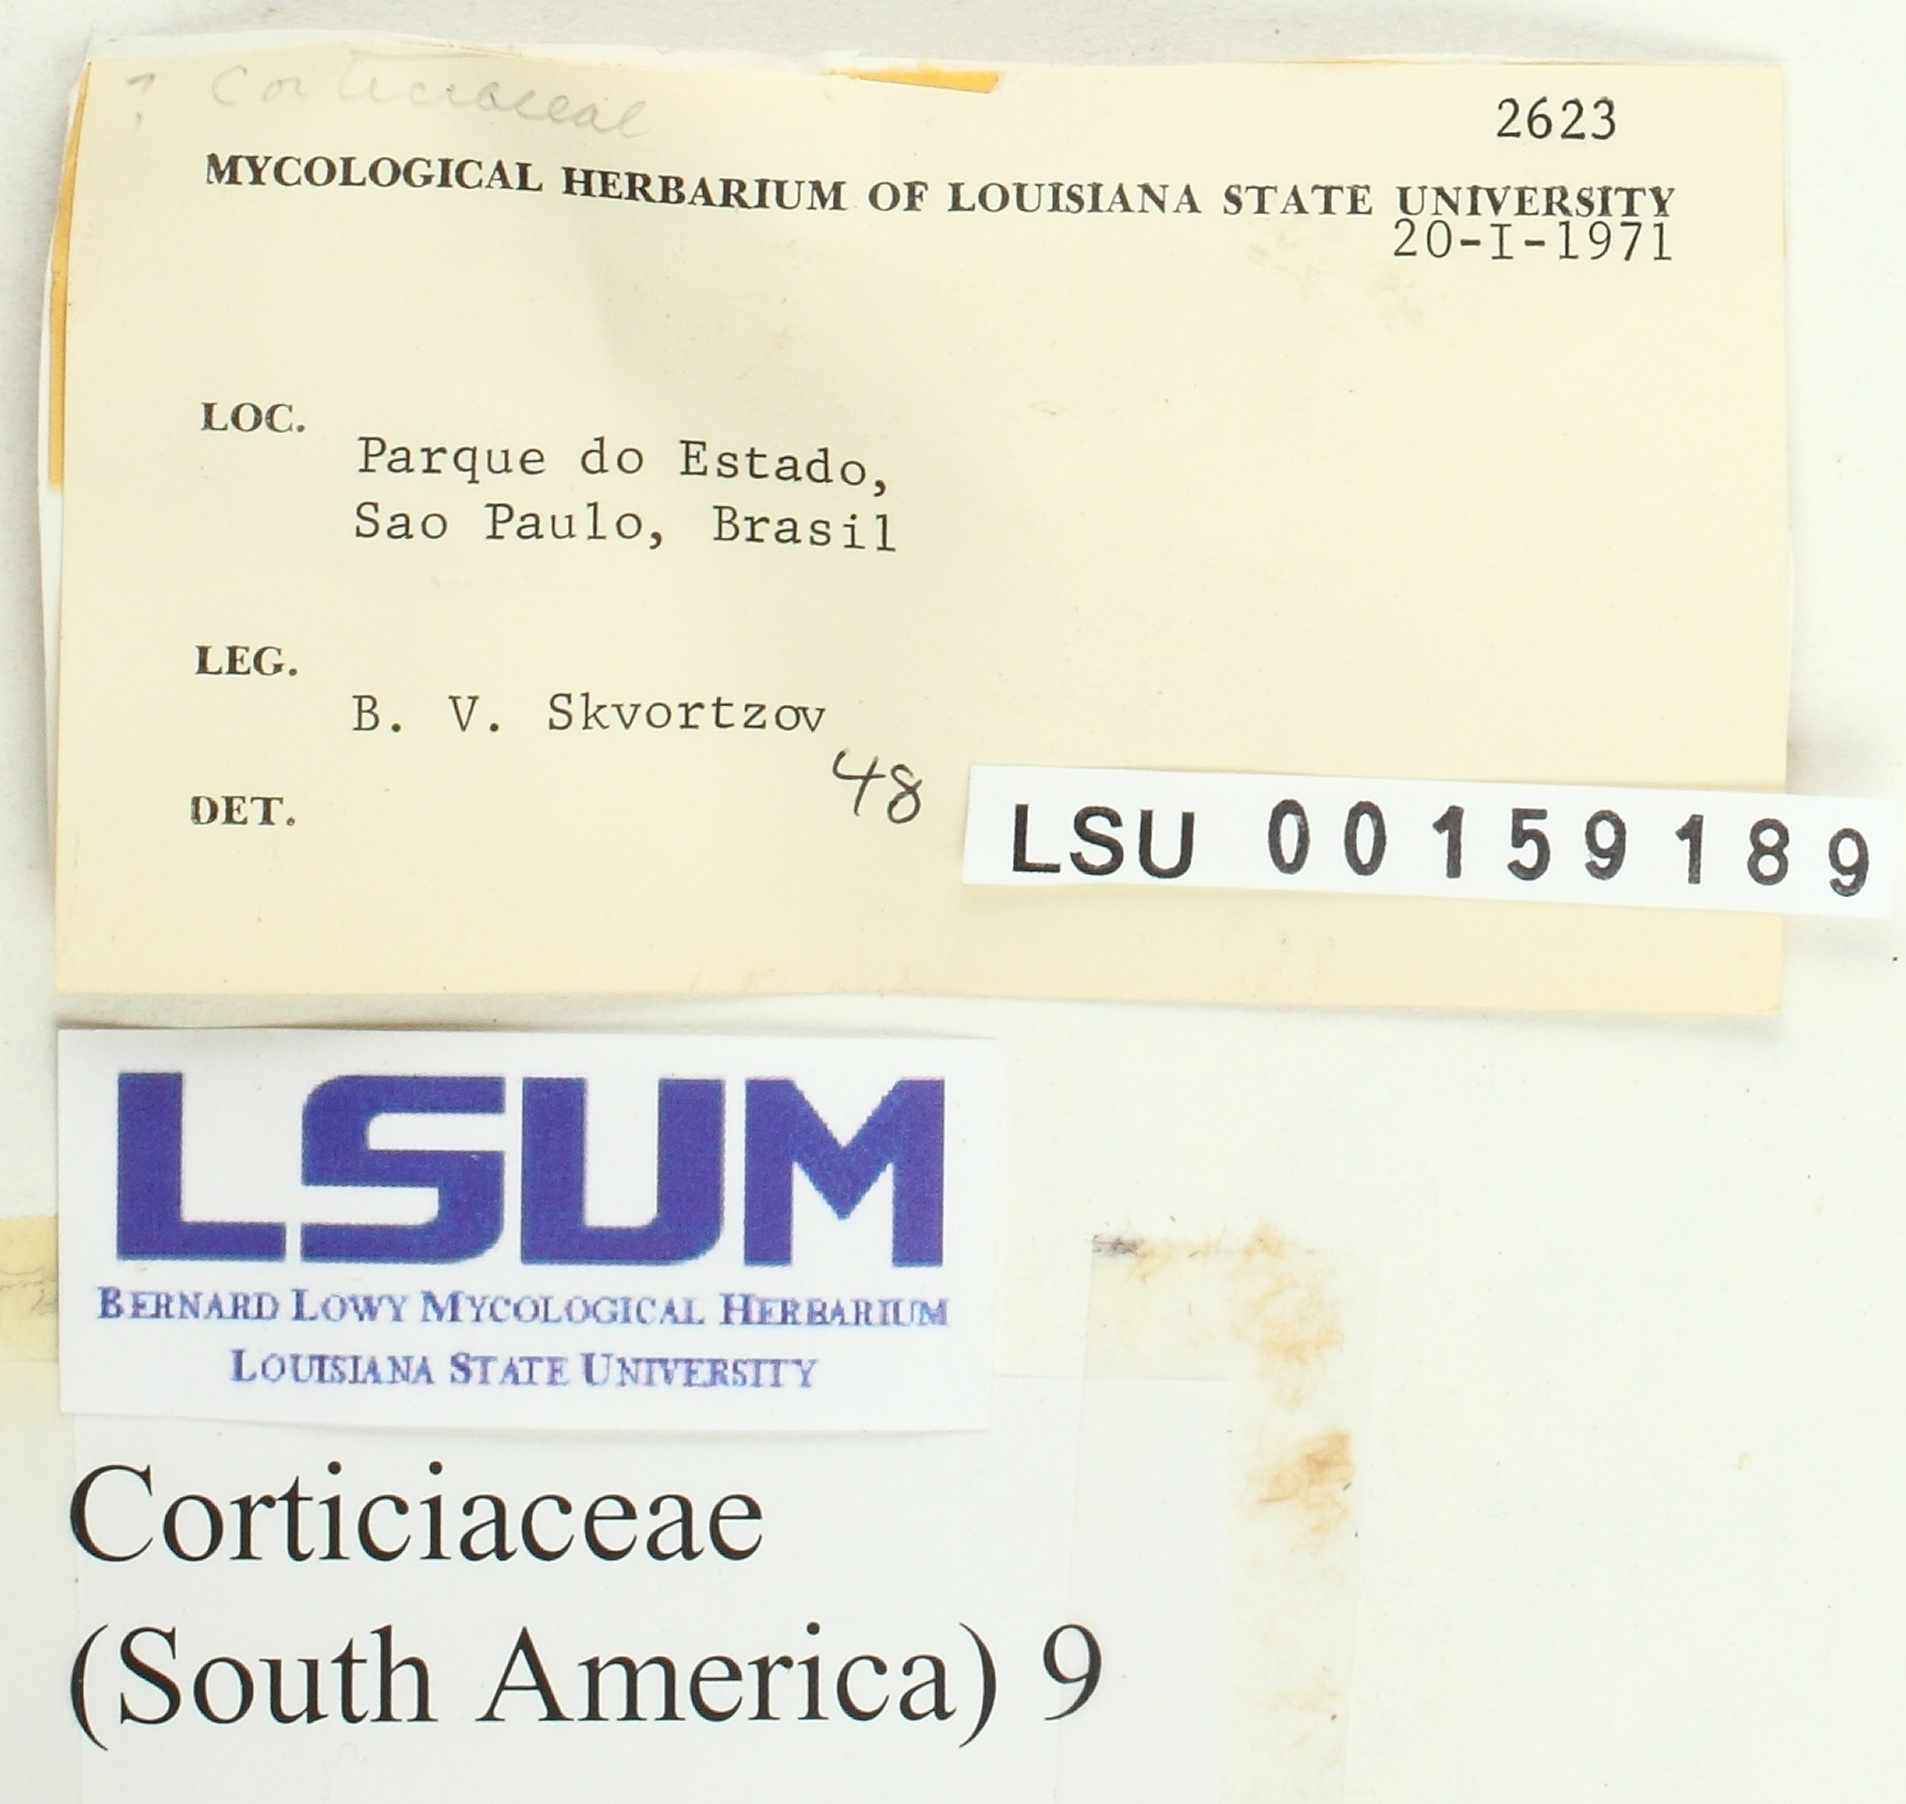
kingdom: Fungi
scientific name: Fungi
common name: Fungi
